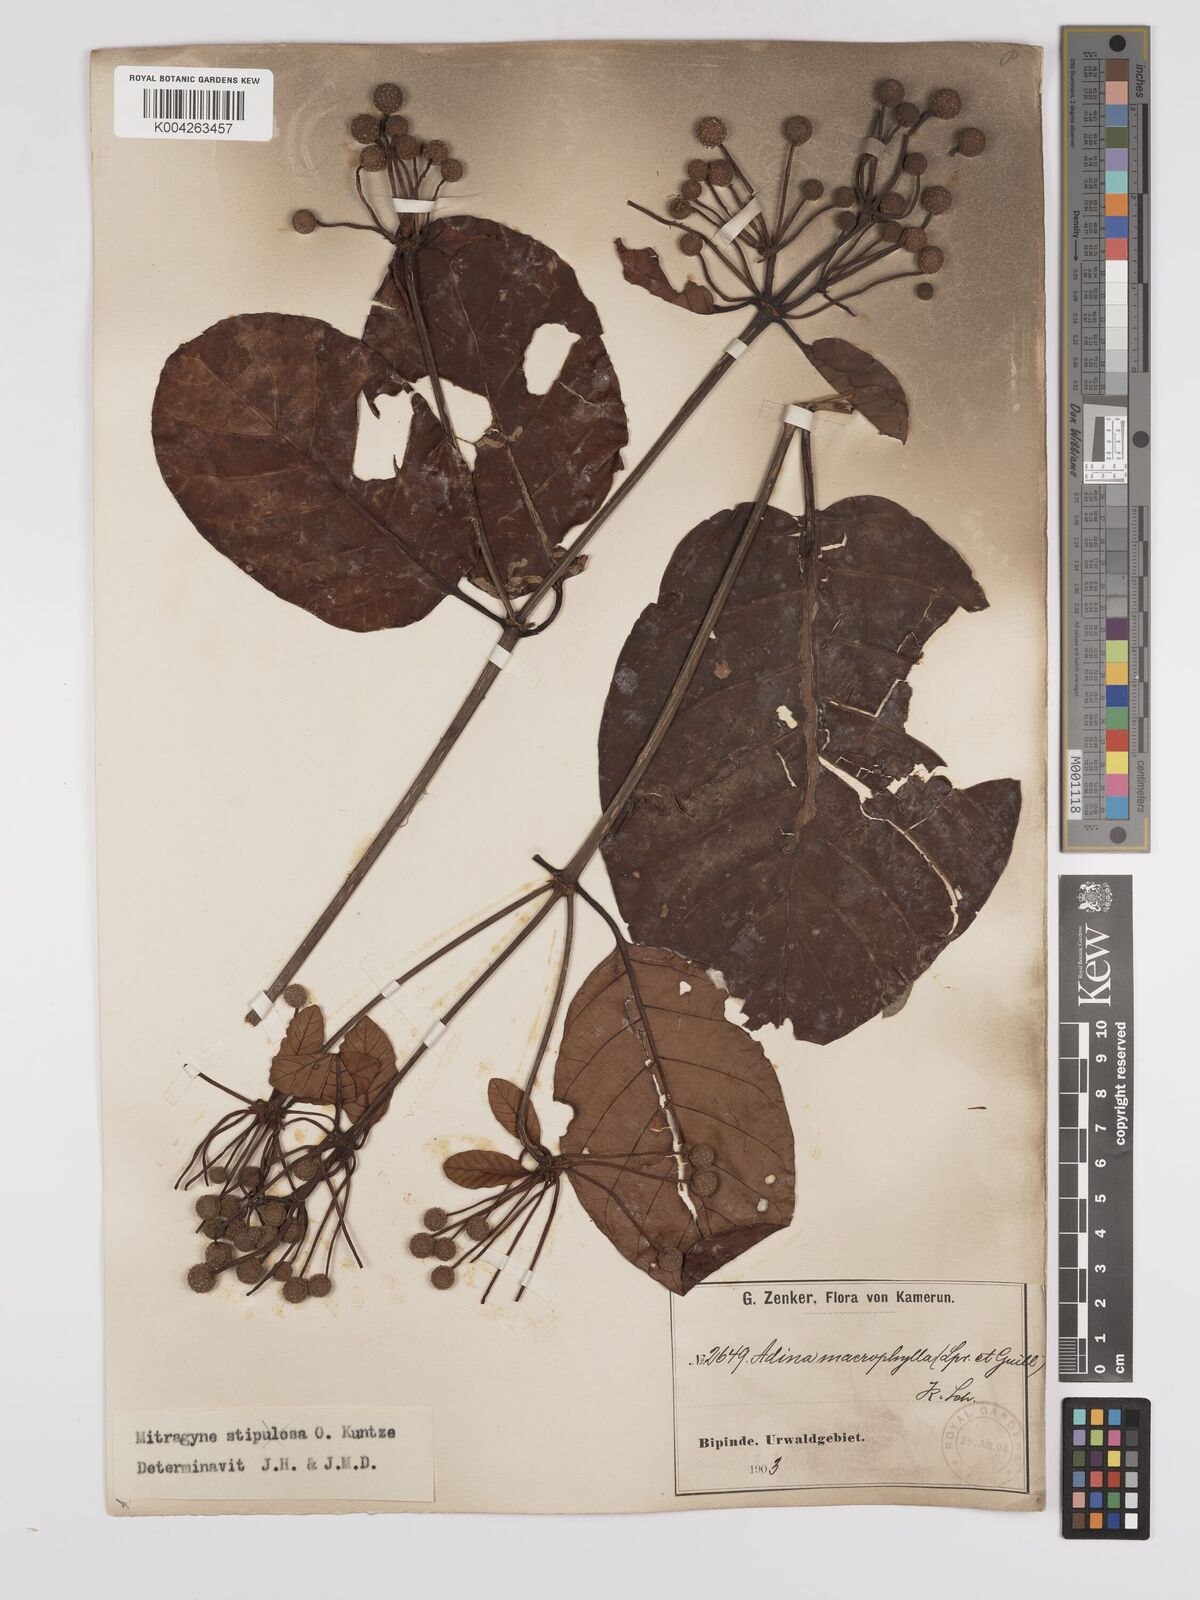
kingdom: Plantae
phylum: Tracheophyta
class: Magnoliopsida
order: Gentianales
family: Rubiaceae
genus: Mitragyna
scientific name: Mitragyna stipulosa
